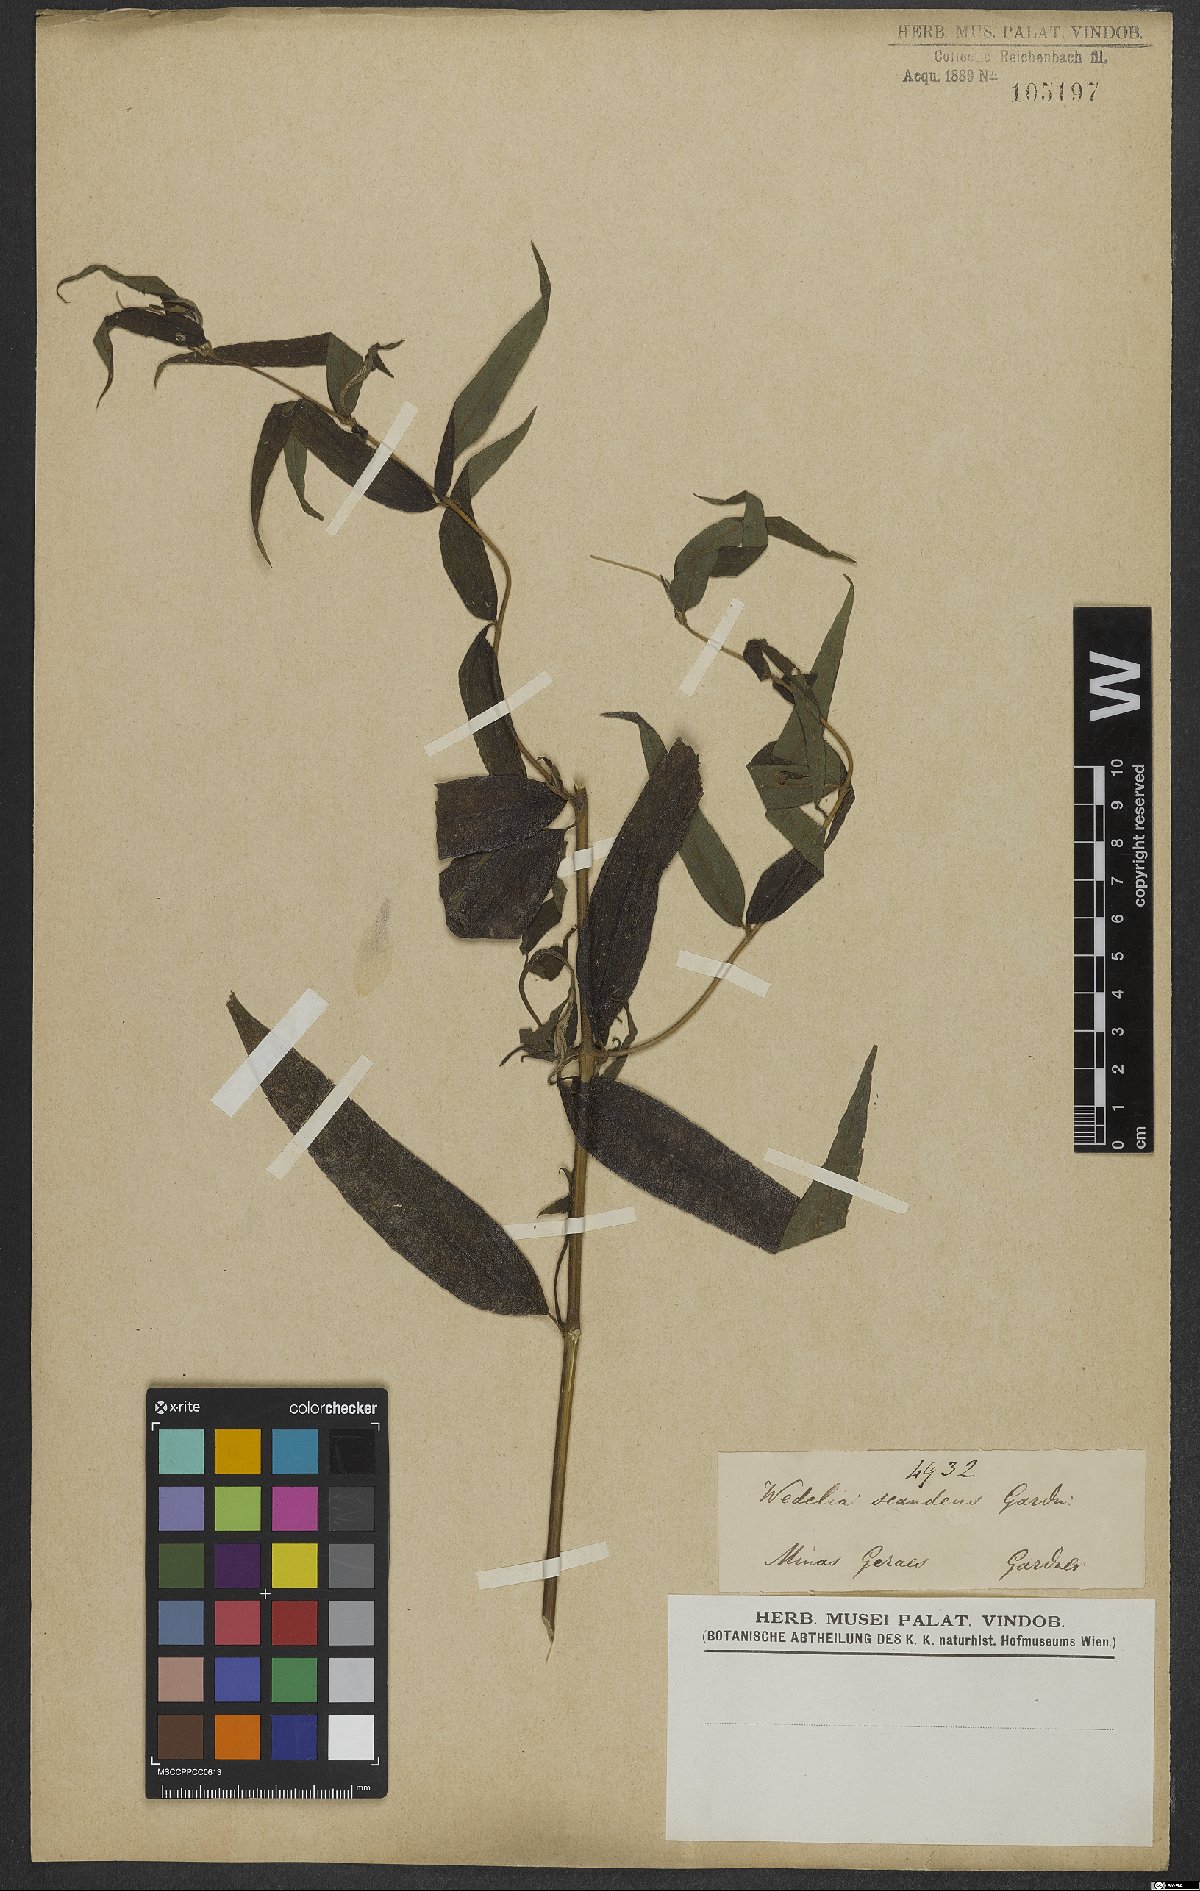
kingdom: Plantae
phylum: Tracheophyta
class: Magnoliopsida
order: Asterales
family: Asteraceae
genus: Wedelia
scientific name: Wedelia subvelutina
